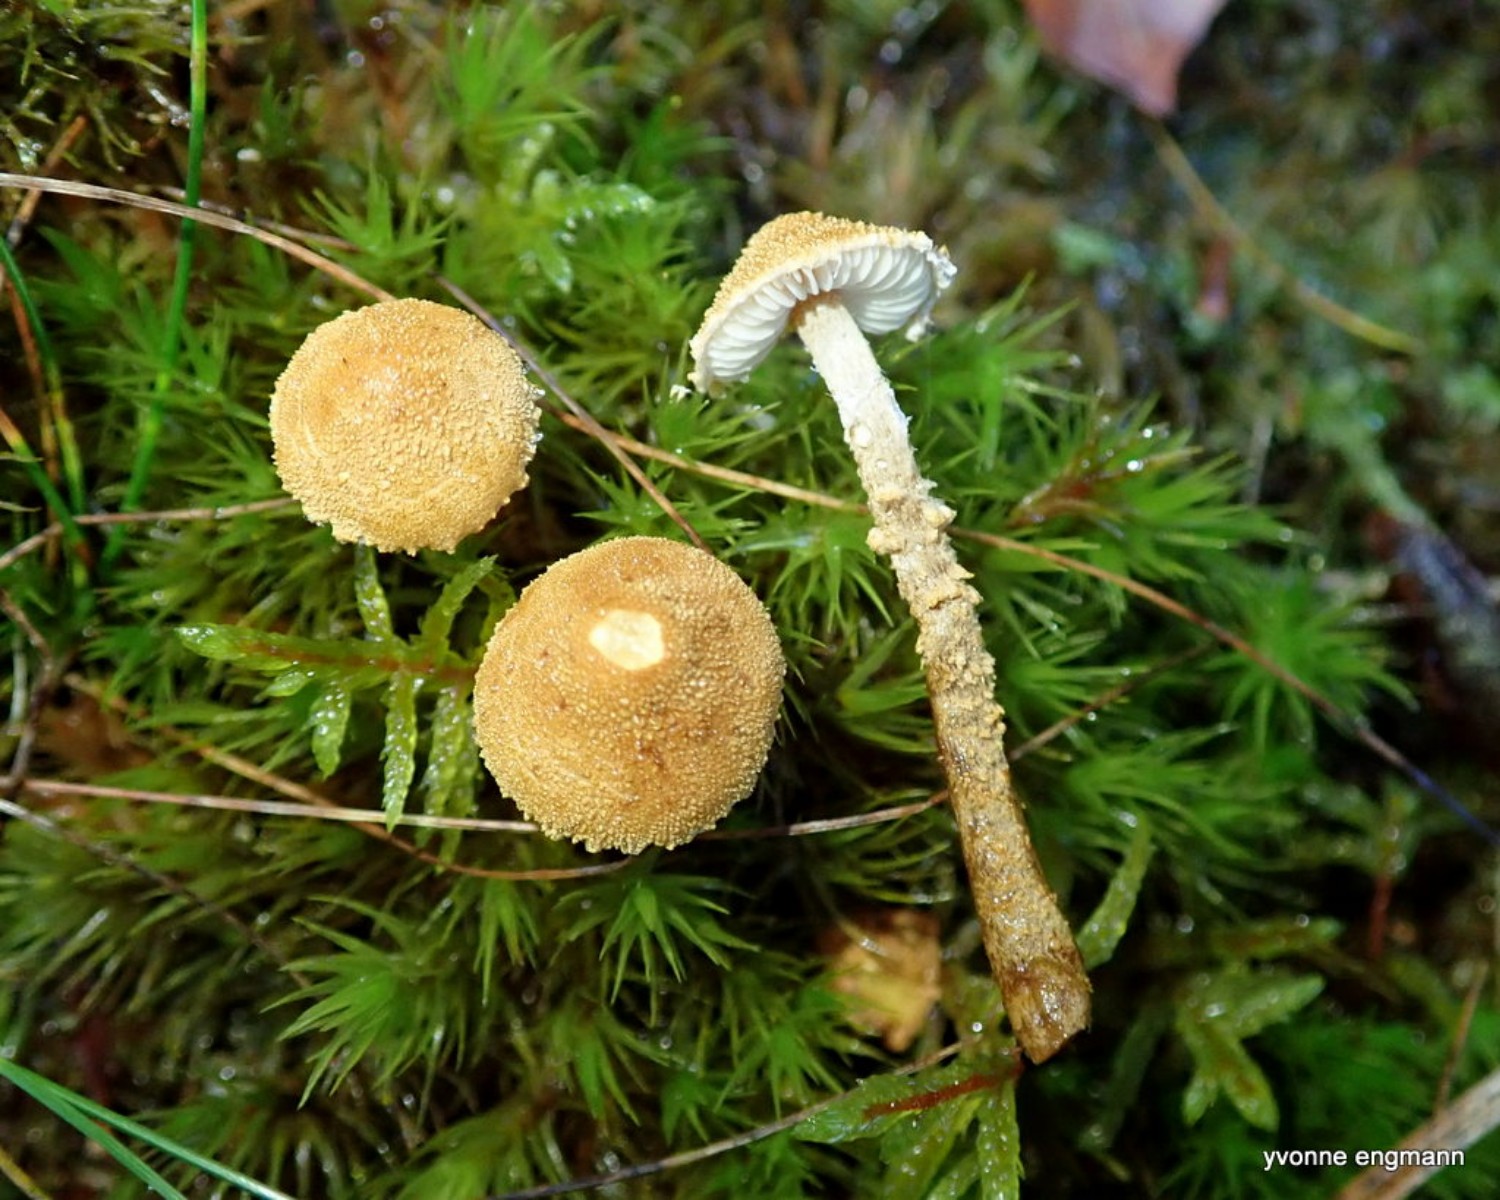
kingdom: Fungi
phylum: Basidiomycota
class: Agaricomycetes
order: Agaricales
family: Tricholomataceae
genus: Cystoderma
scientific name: Cystoderma amianthinum
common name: okkergul grynhat
